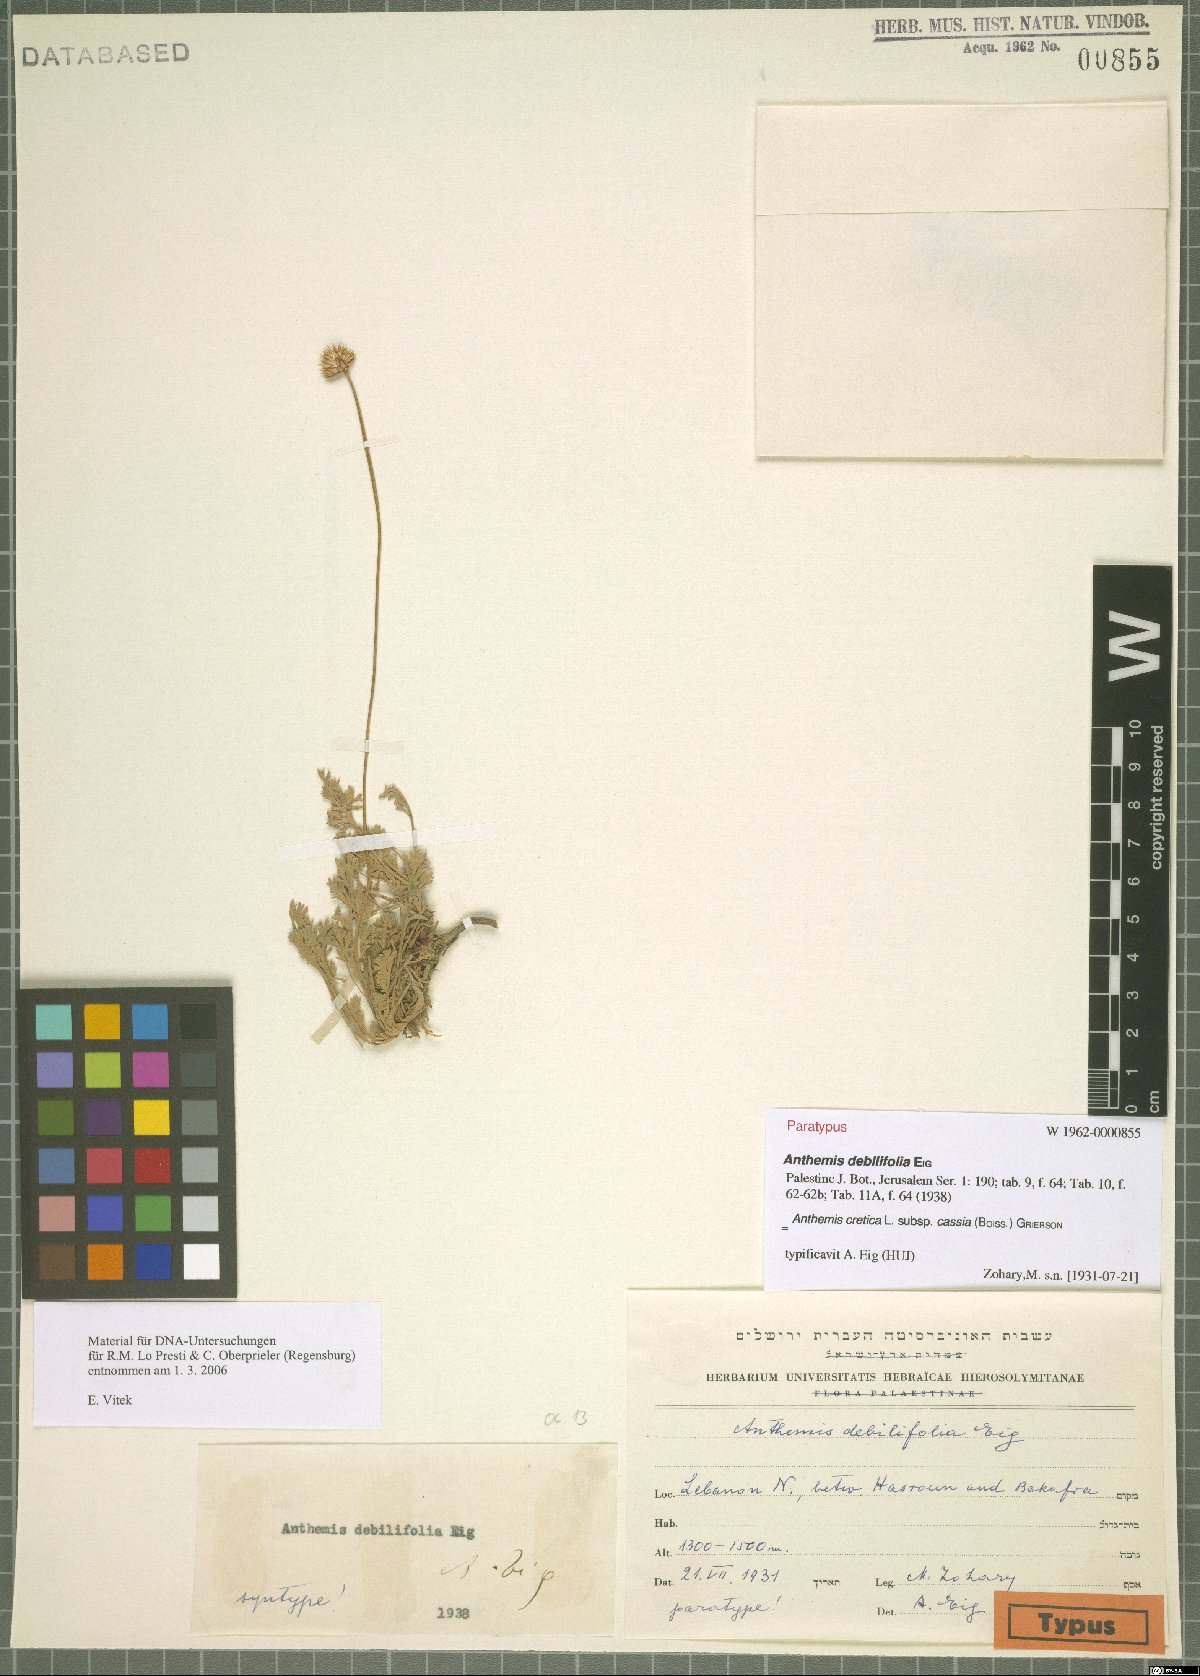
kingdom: Plantae
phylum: Tracheophyta
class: Magnoliopsida
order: Asterales
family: Asteraceae
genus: Anthemis
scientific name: Anthemis cretica
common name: Mountain dog-daisy
